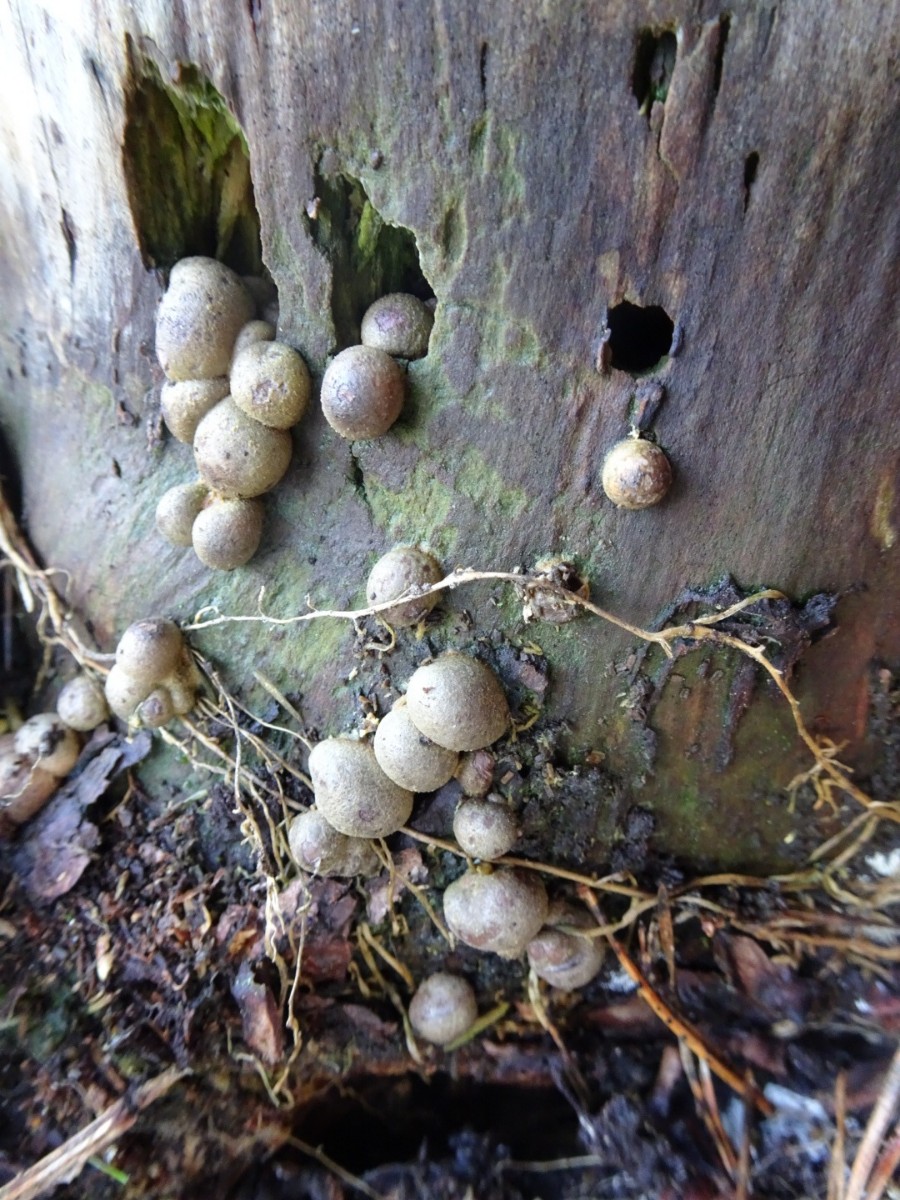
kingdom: Protozoa
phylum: Mycetozoa
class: Myxomycetes
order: Cribrariales
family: Tubiferaceae
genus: Lycogala
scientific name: Lycogala epidendrum
